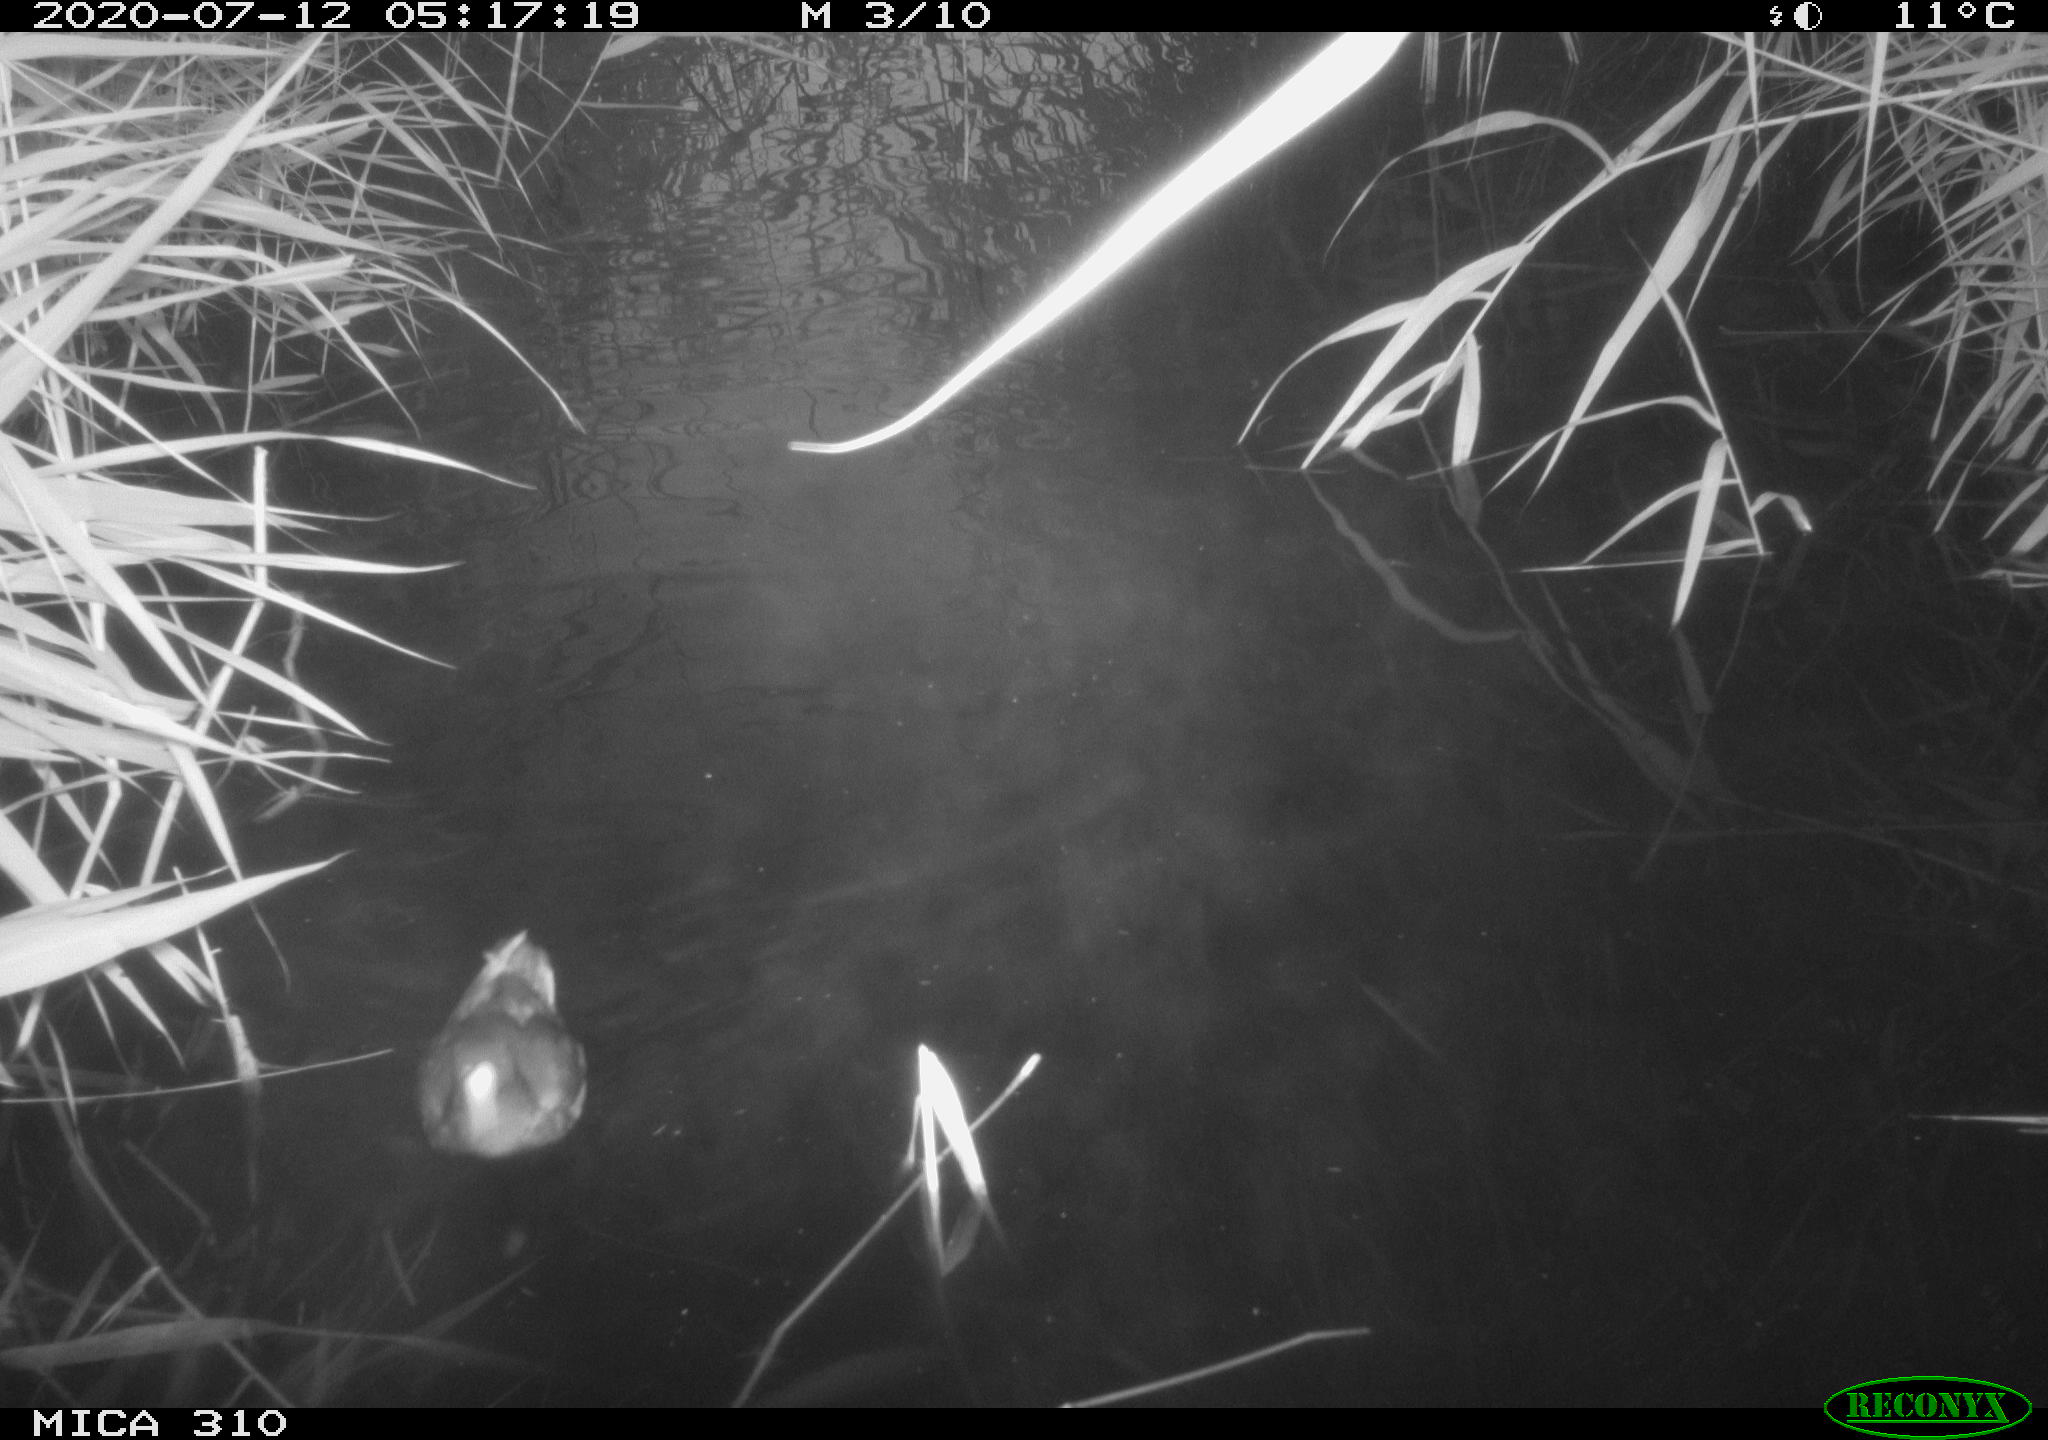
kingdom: Animalia
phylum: Chordata
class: Aves
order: Anseriformes
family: Anatidae
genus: Anas
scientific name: Anas platyrhynchos
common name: Mallard
